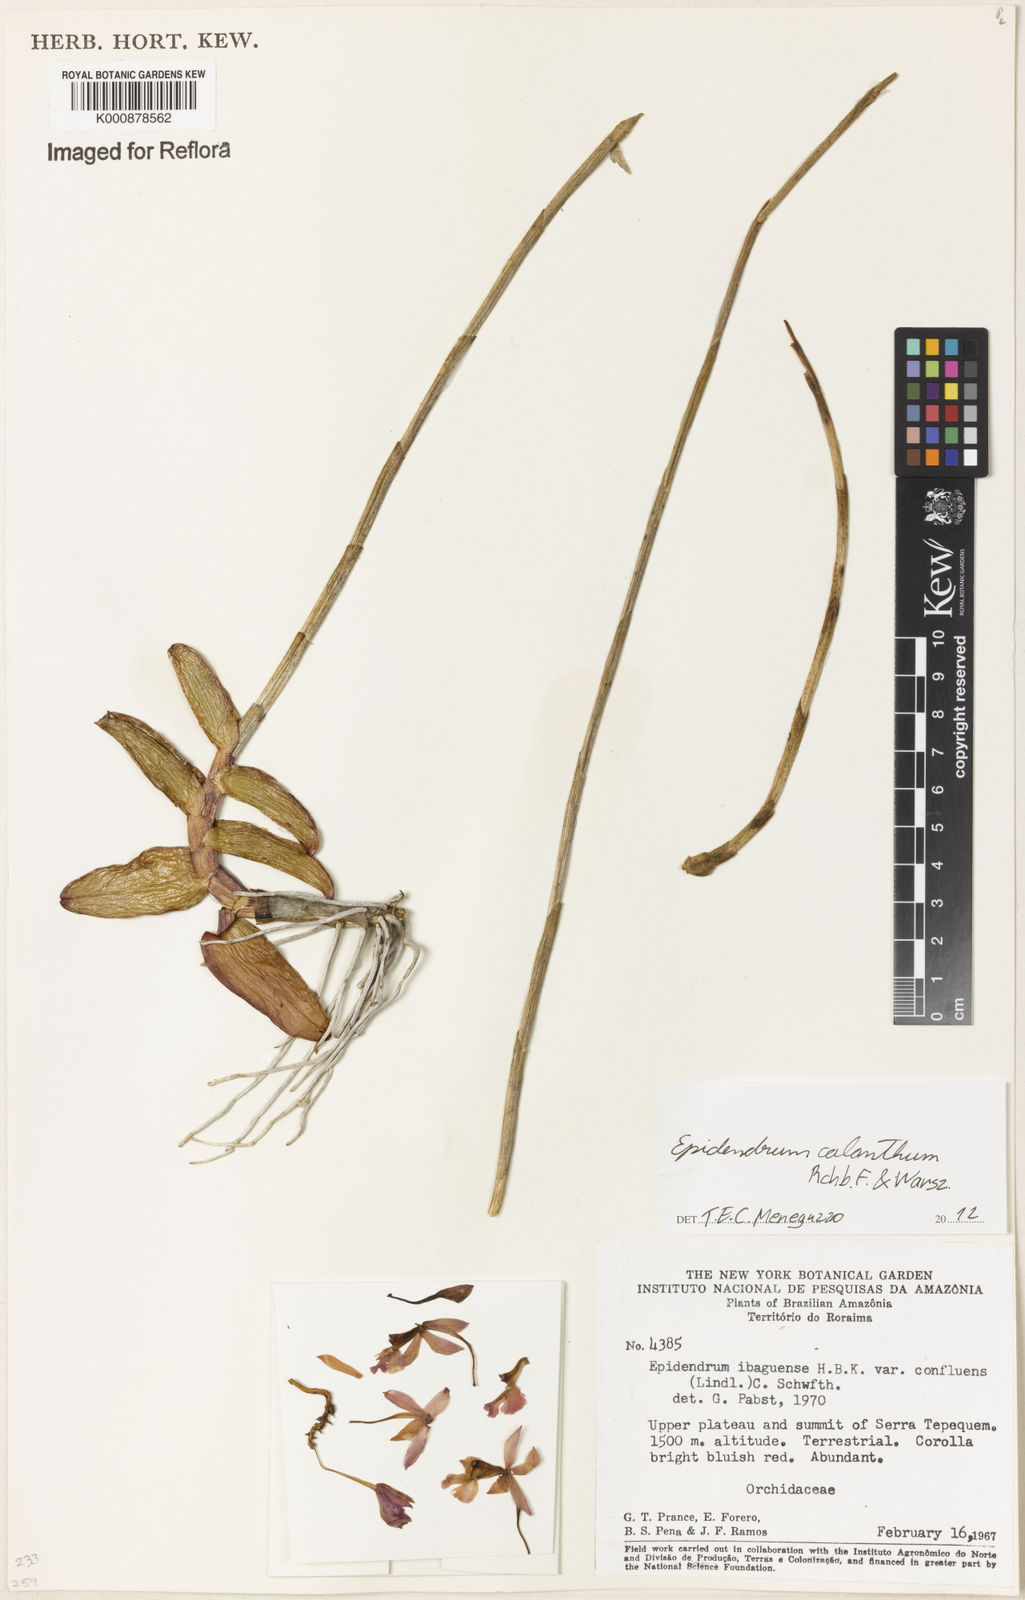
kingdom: Plantae
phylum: Tracheophyta
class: Liliopsida
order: Asparagales
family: Orchidaceae
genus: Epidendrum
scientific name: Epidendrum calanthum
